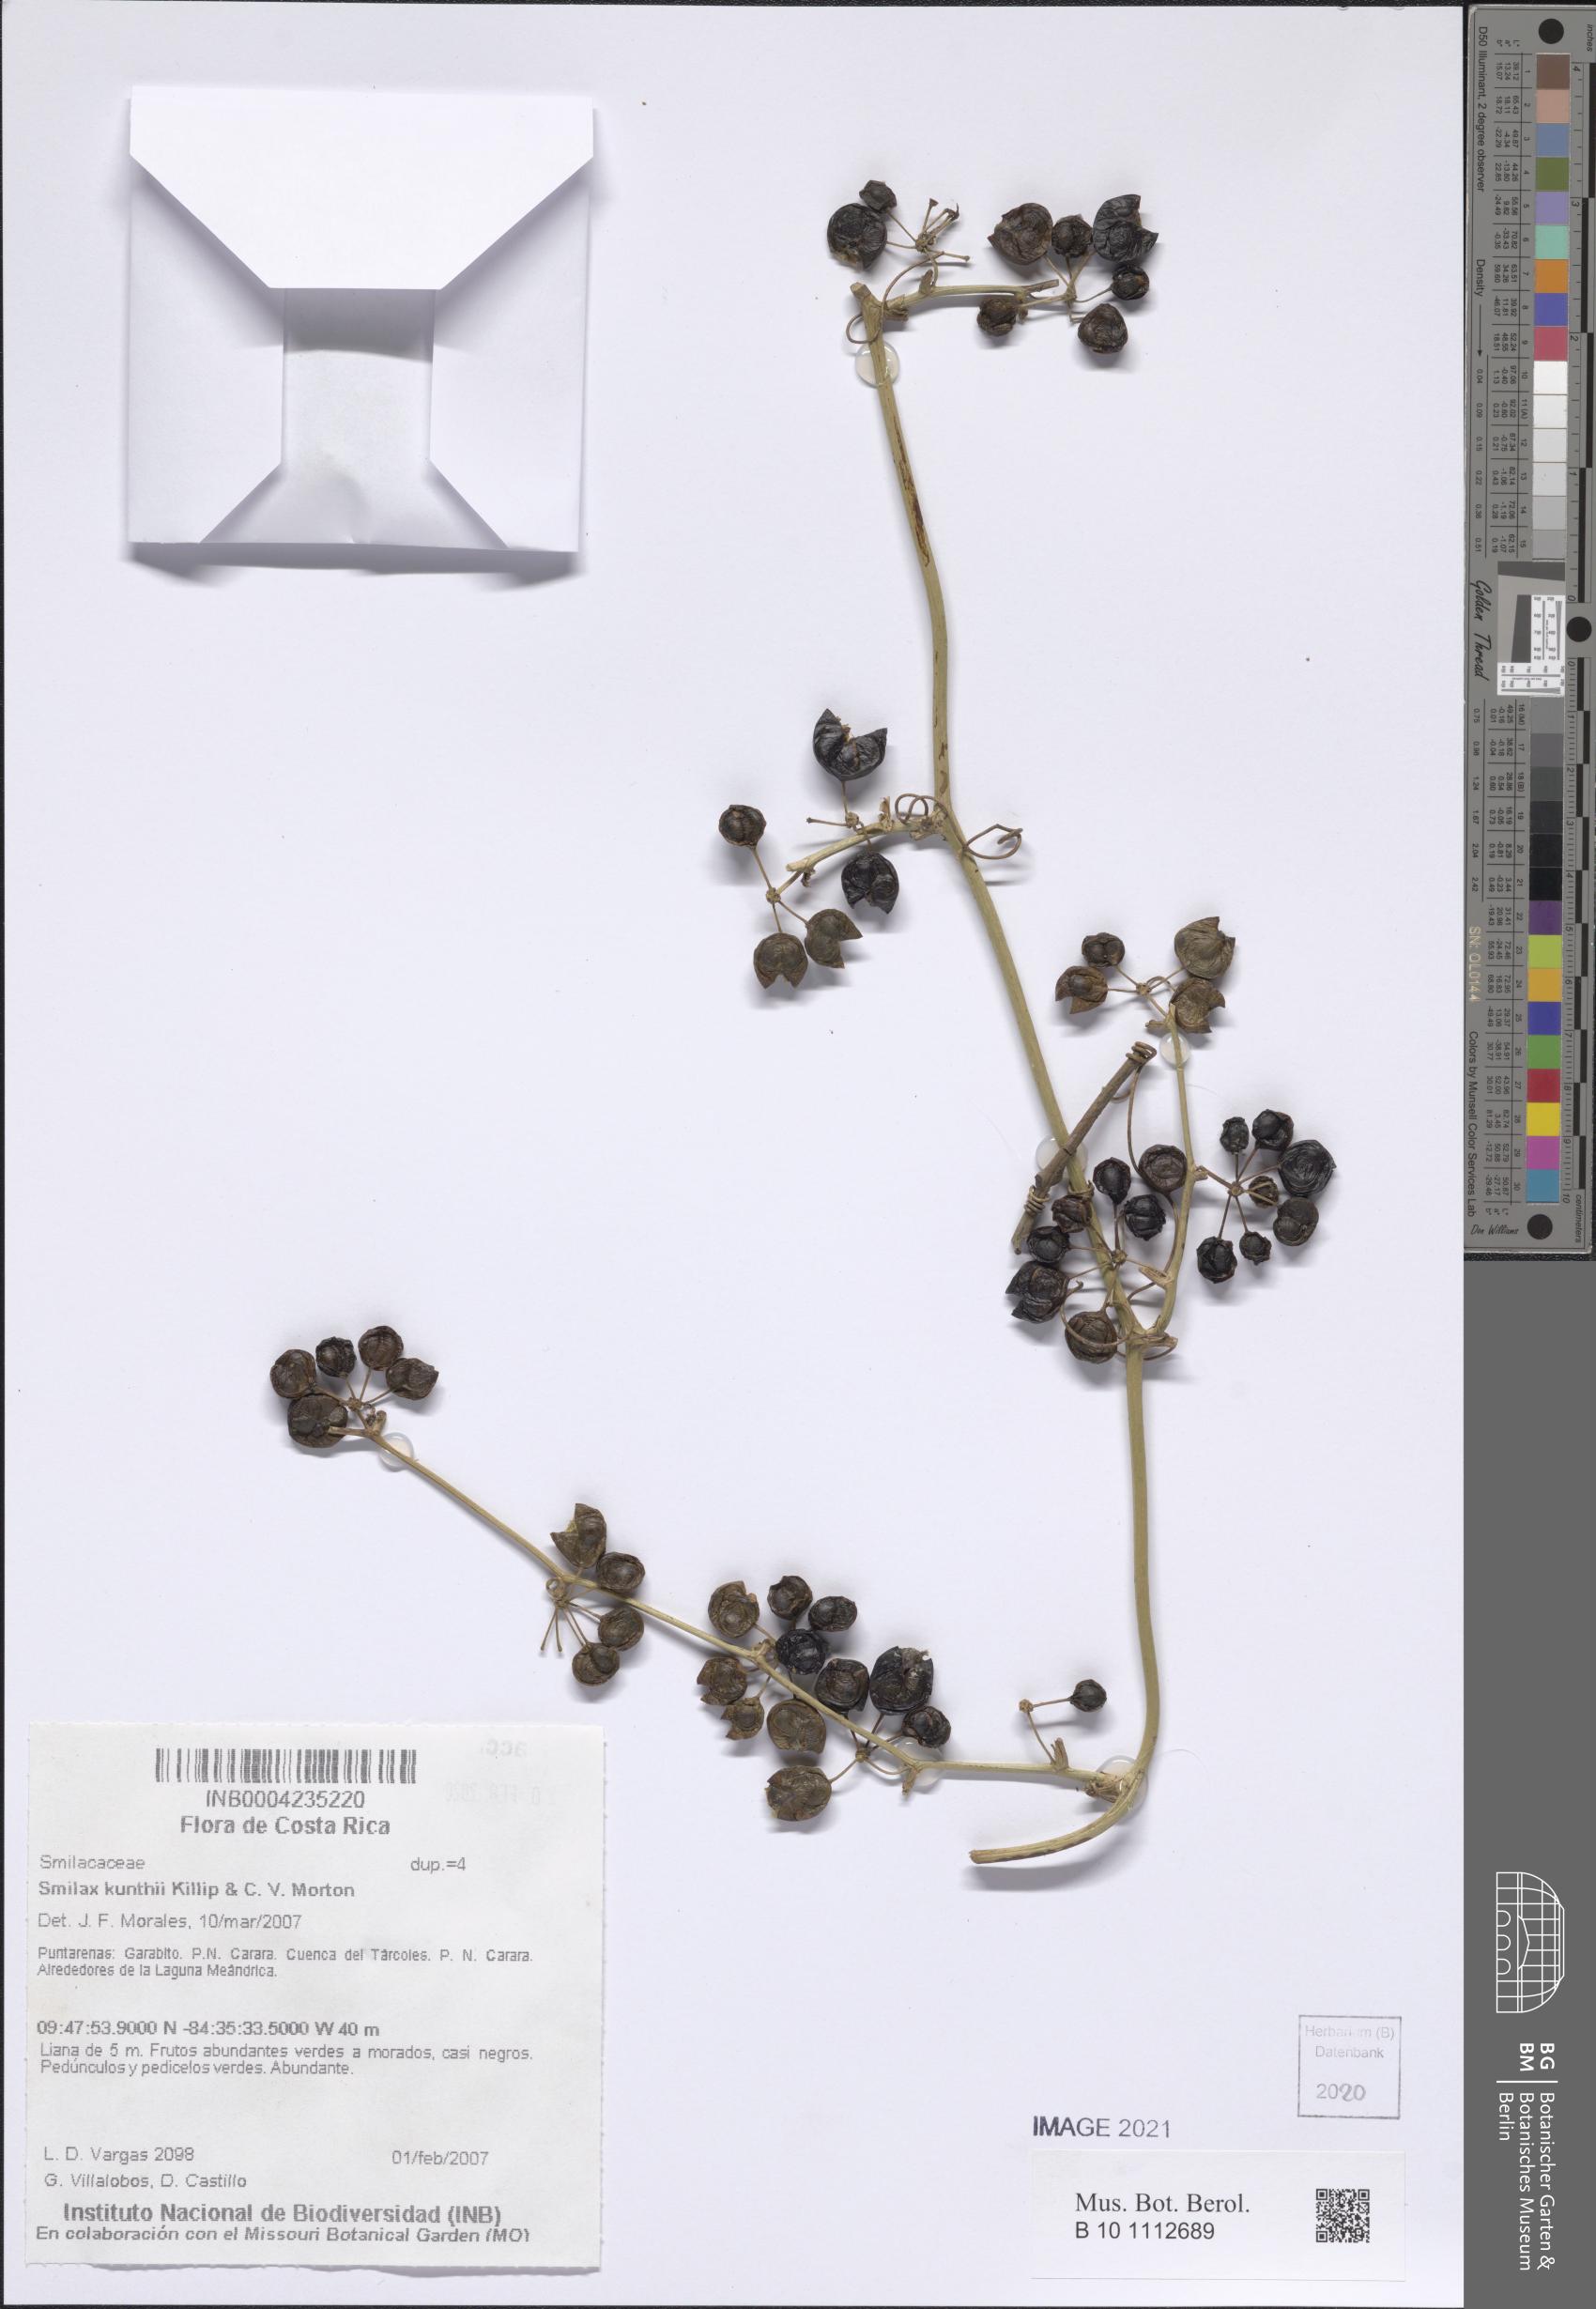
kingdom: Plantae
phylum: Tracheophyta
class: Liliopsida
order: Liliales
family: Smilacaceae
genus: Smilax
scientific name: Smilax domingensis
